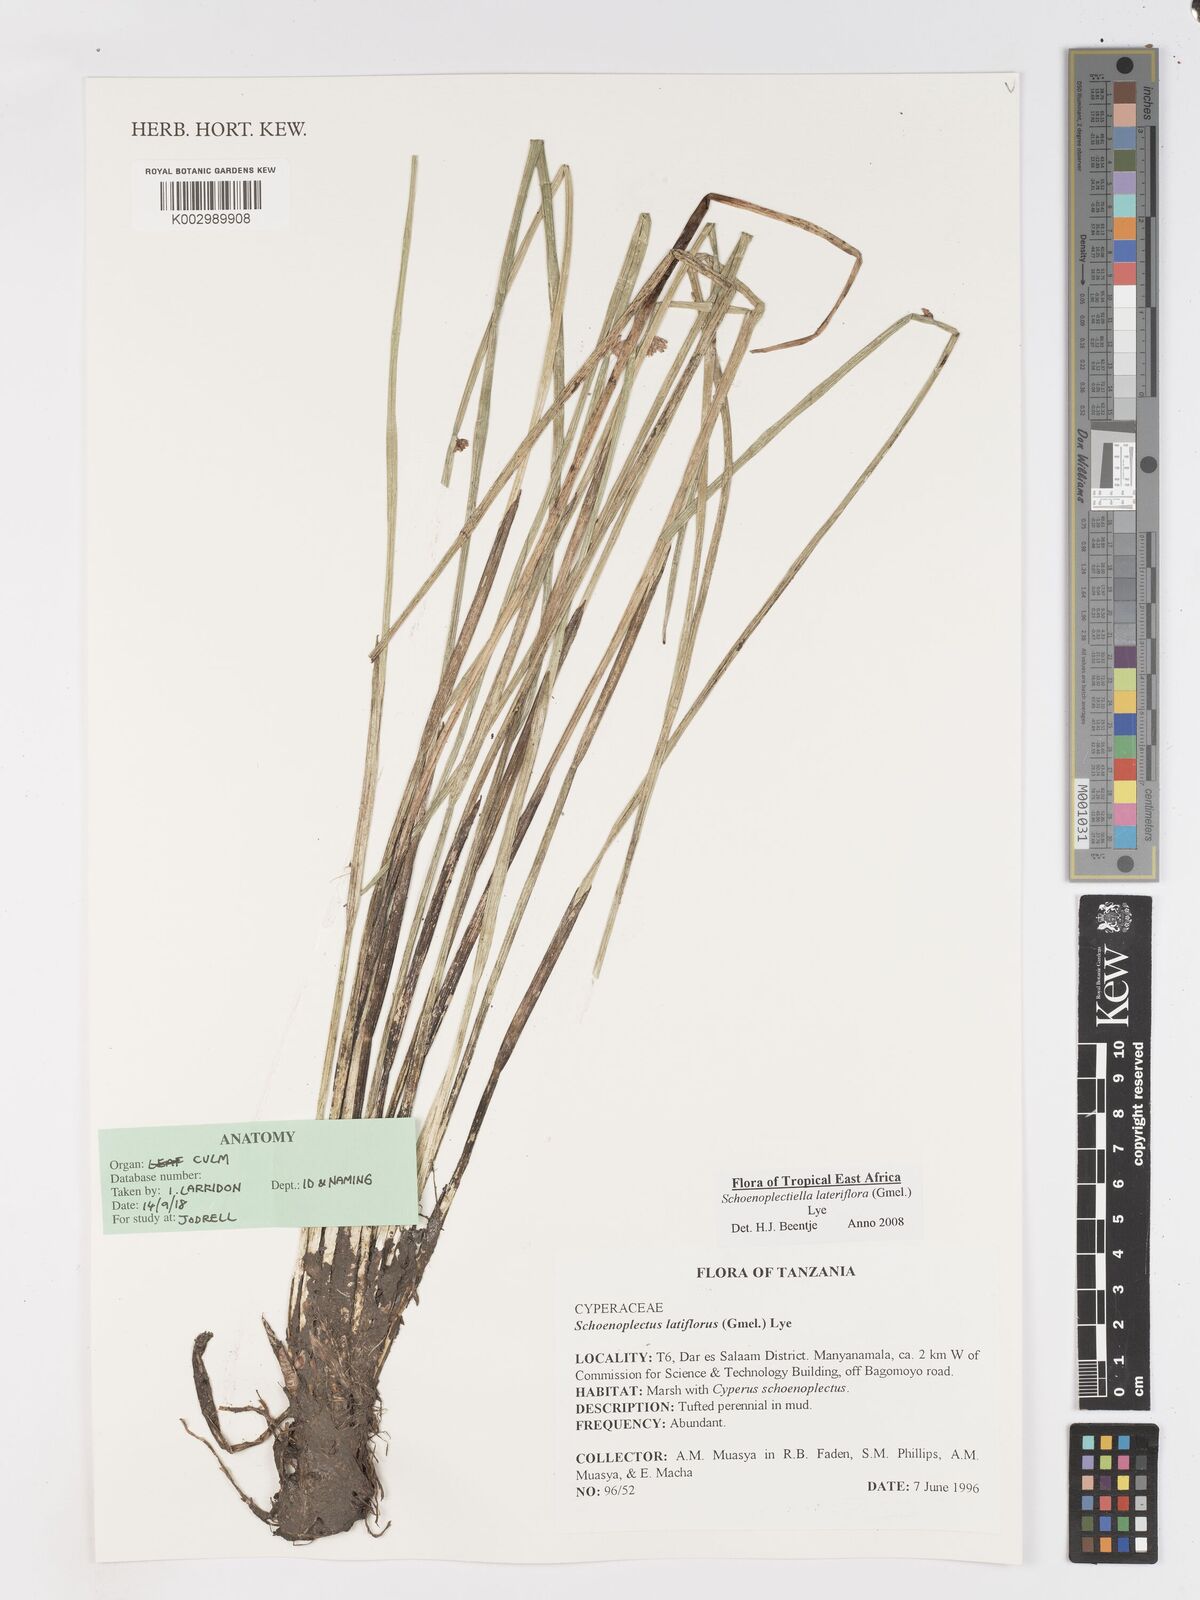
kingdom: Plantae
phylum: Tracheophyta
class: Liliopsida
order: Poales
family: Cyperaceae
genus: Schoenoplectiella
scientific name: Schoenoplectiella lateriflora
